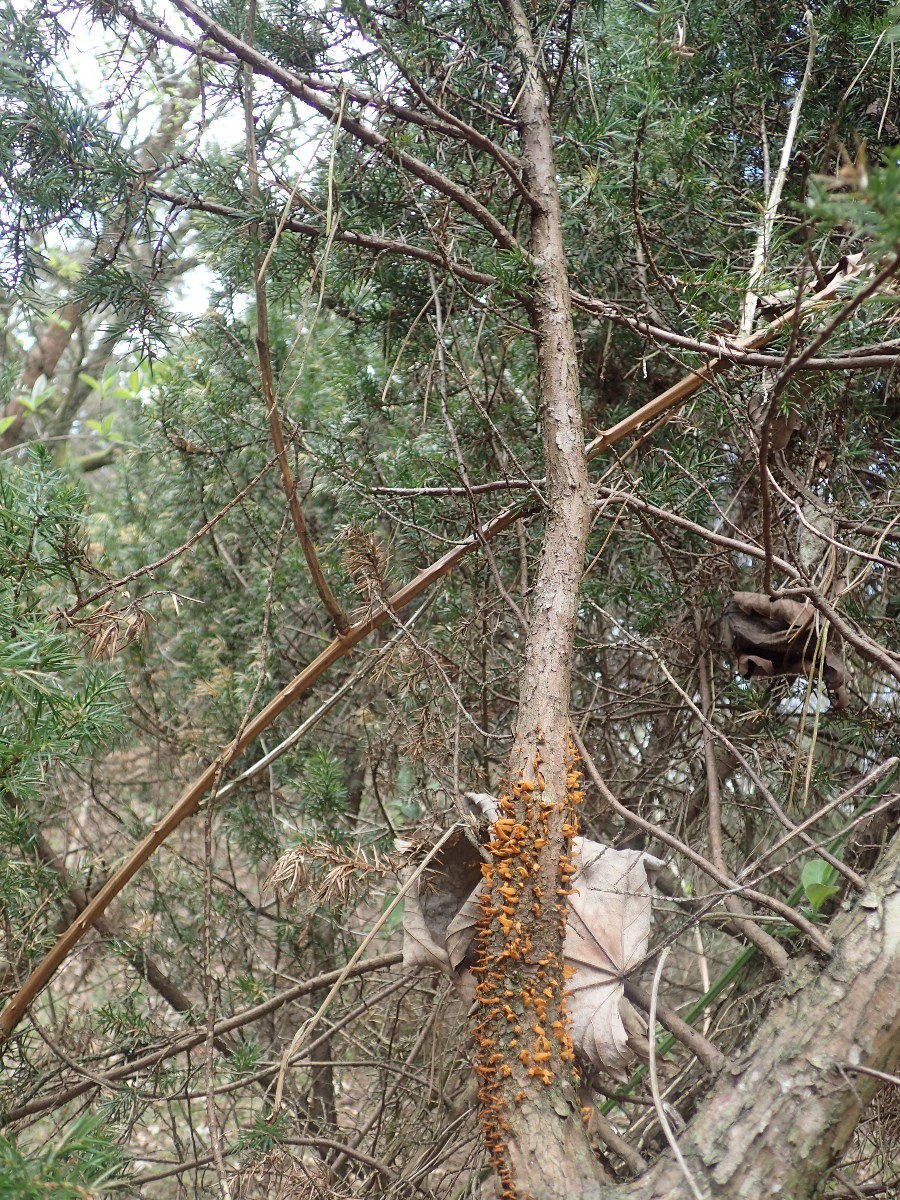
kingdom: Fungi
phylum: Basidiomycota
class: Pucciniomycetes
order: Pucciniales
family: Gymnosporangiaceae
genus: Gymnosporangium
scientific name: Gymnosporangium clavariiforme
